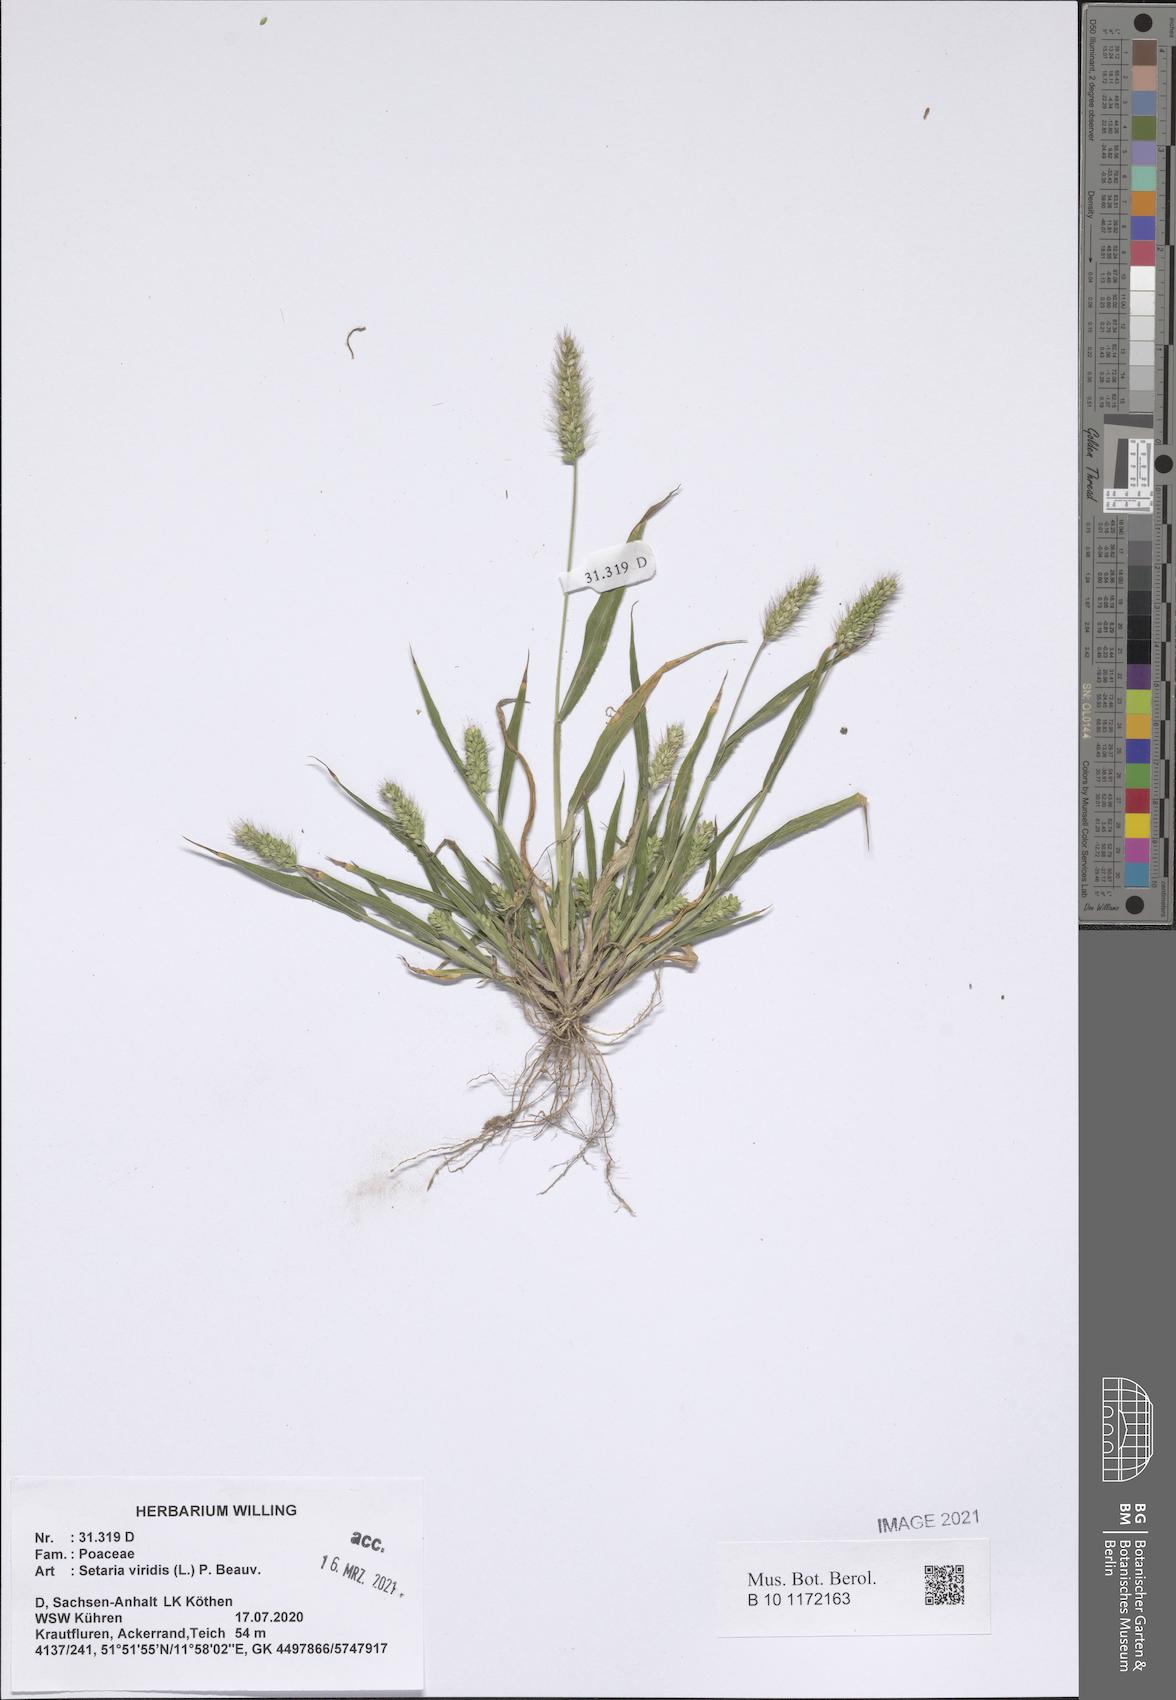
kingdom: Plantae
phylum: Tracheophyta
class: Liliopsida
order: Poales
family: Poaceae
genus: Setaria
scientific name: Setaria viridis
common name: Green bristlegrass
